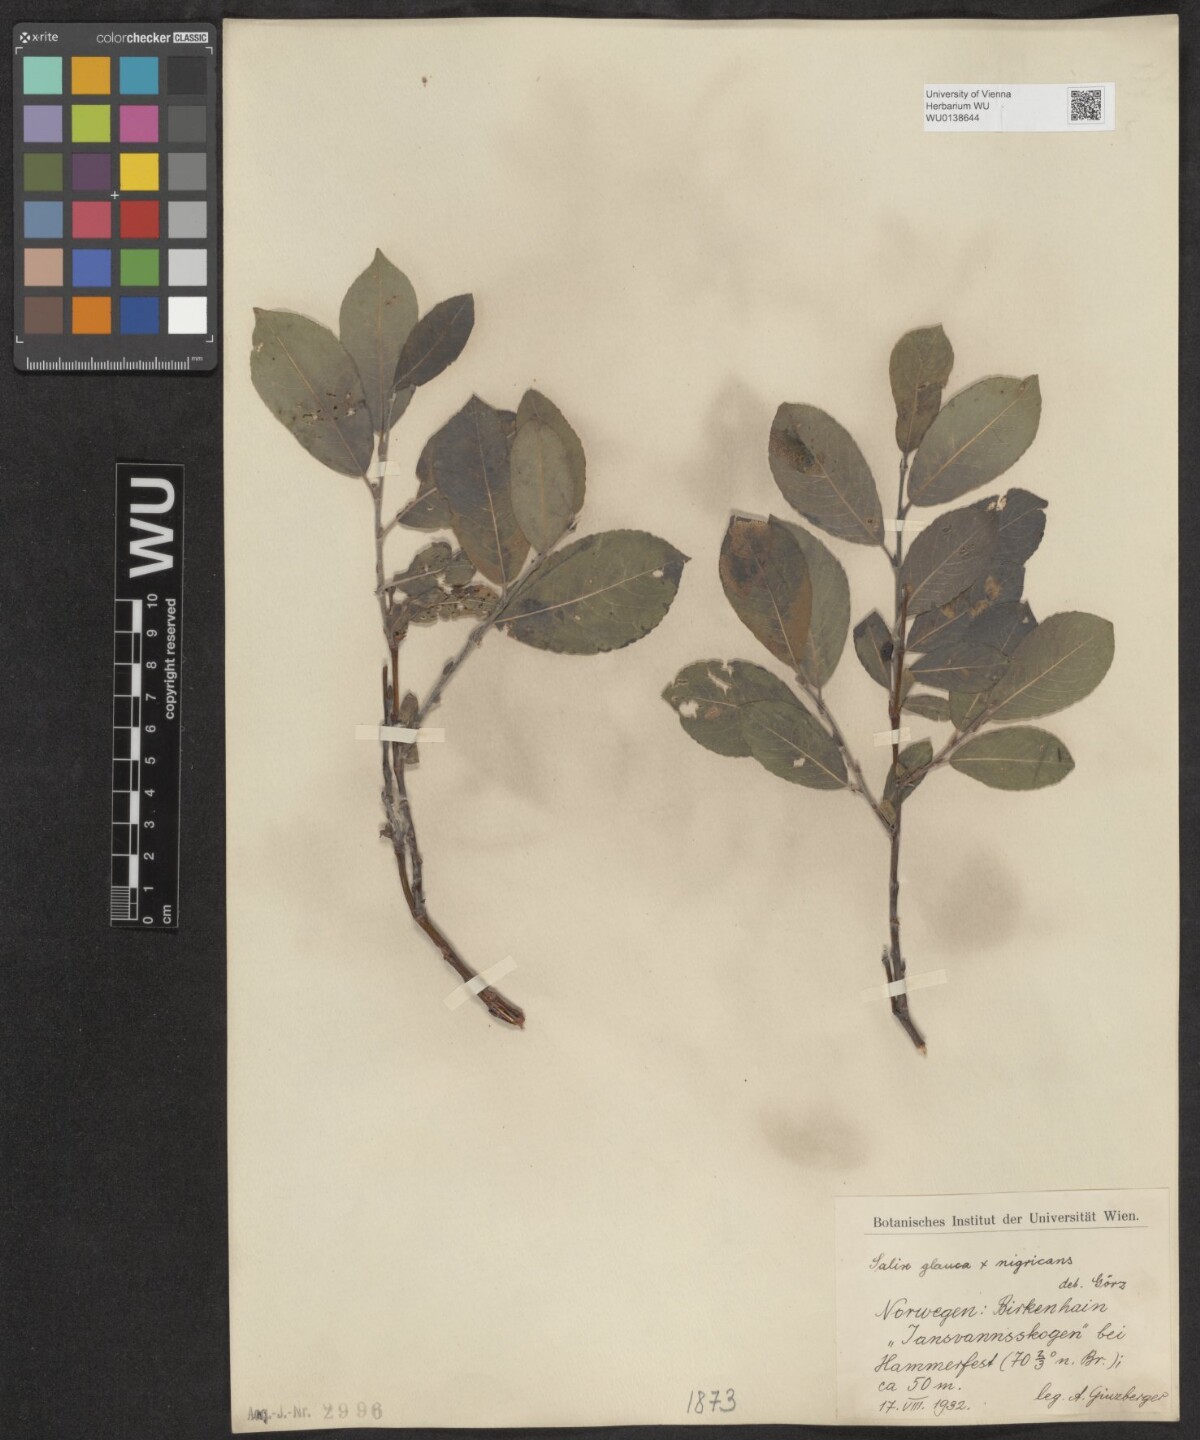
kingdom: Plantae
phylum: Tracheophyta
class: Magnoliopsida
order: Malpighiales
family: Salicaceae
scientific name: Salicaceae
